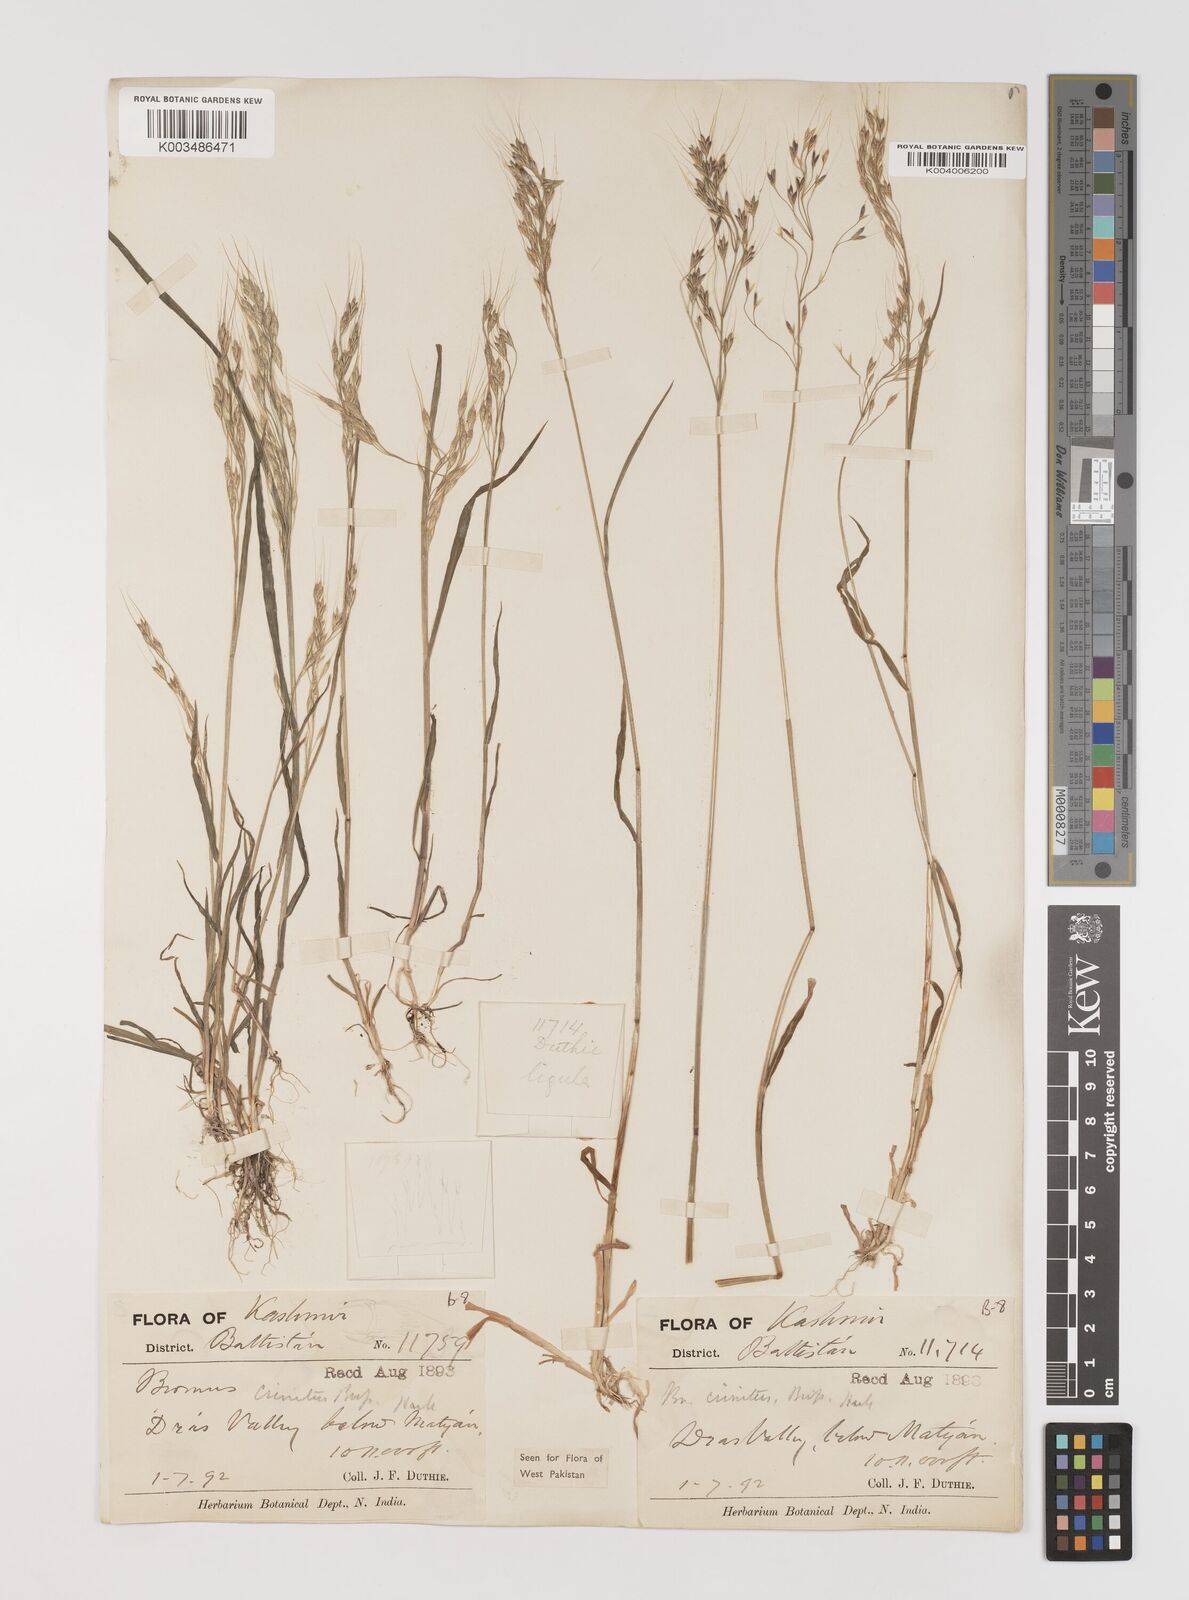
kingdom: Plantae
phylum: Tracheophyta
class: Liliopsida
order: Poales
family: Poaceae
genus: Bromus
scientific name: Bromus gracillimus
